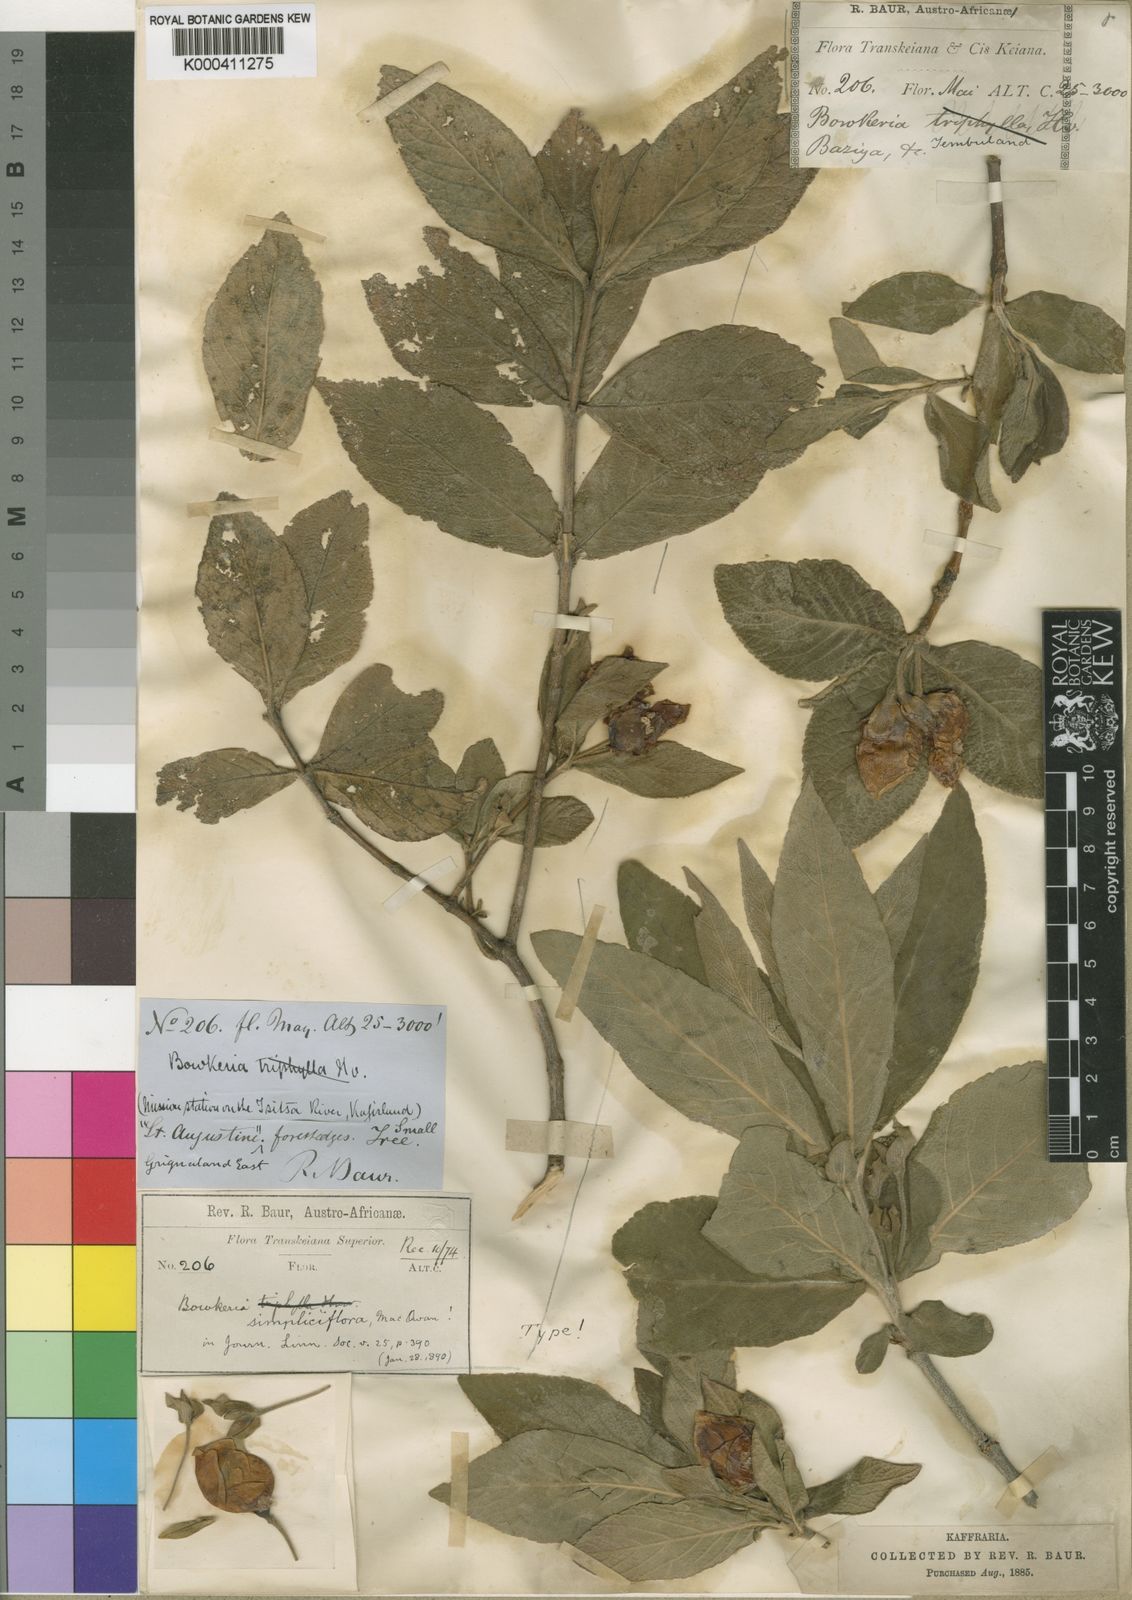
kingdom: Plantae
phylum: Tracheophyta
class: Magnoliopsida
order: Lamiales
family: Stilbaceae
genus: Bowkeria
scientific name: Bowkeria
